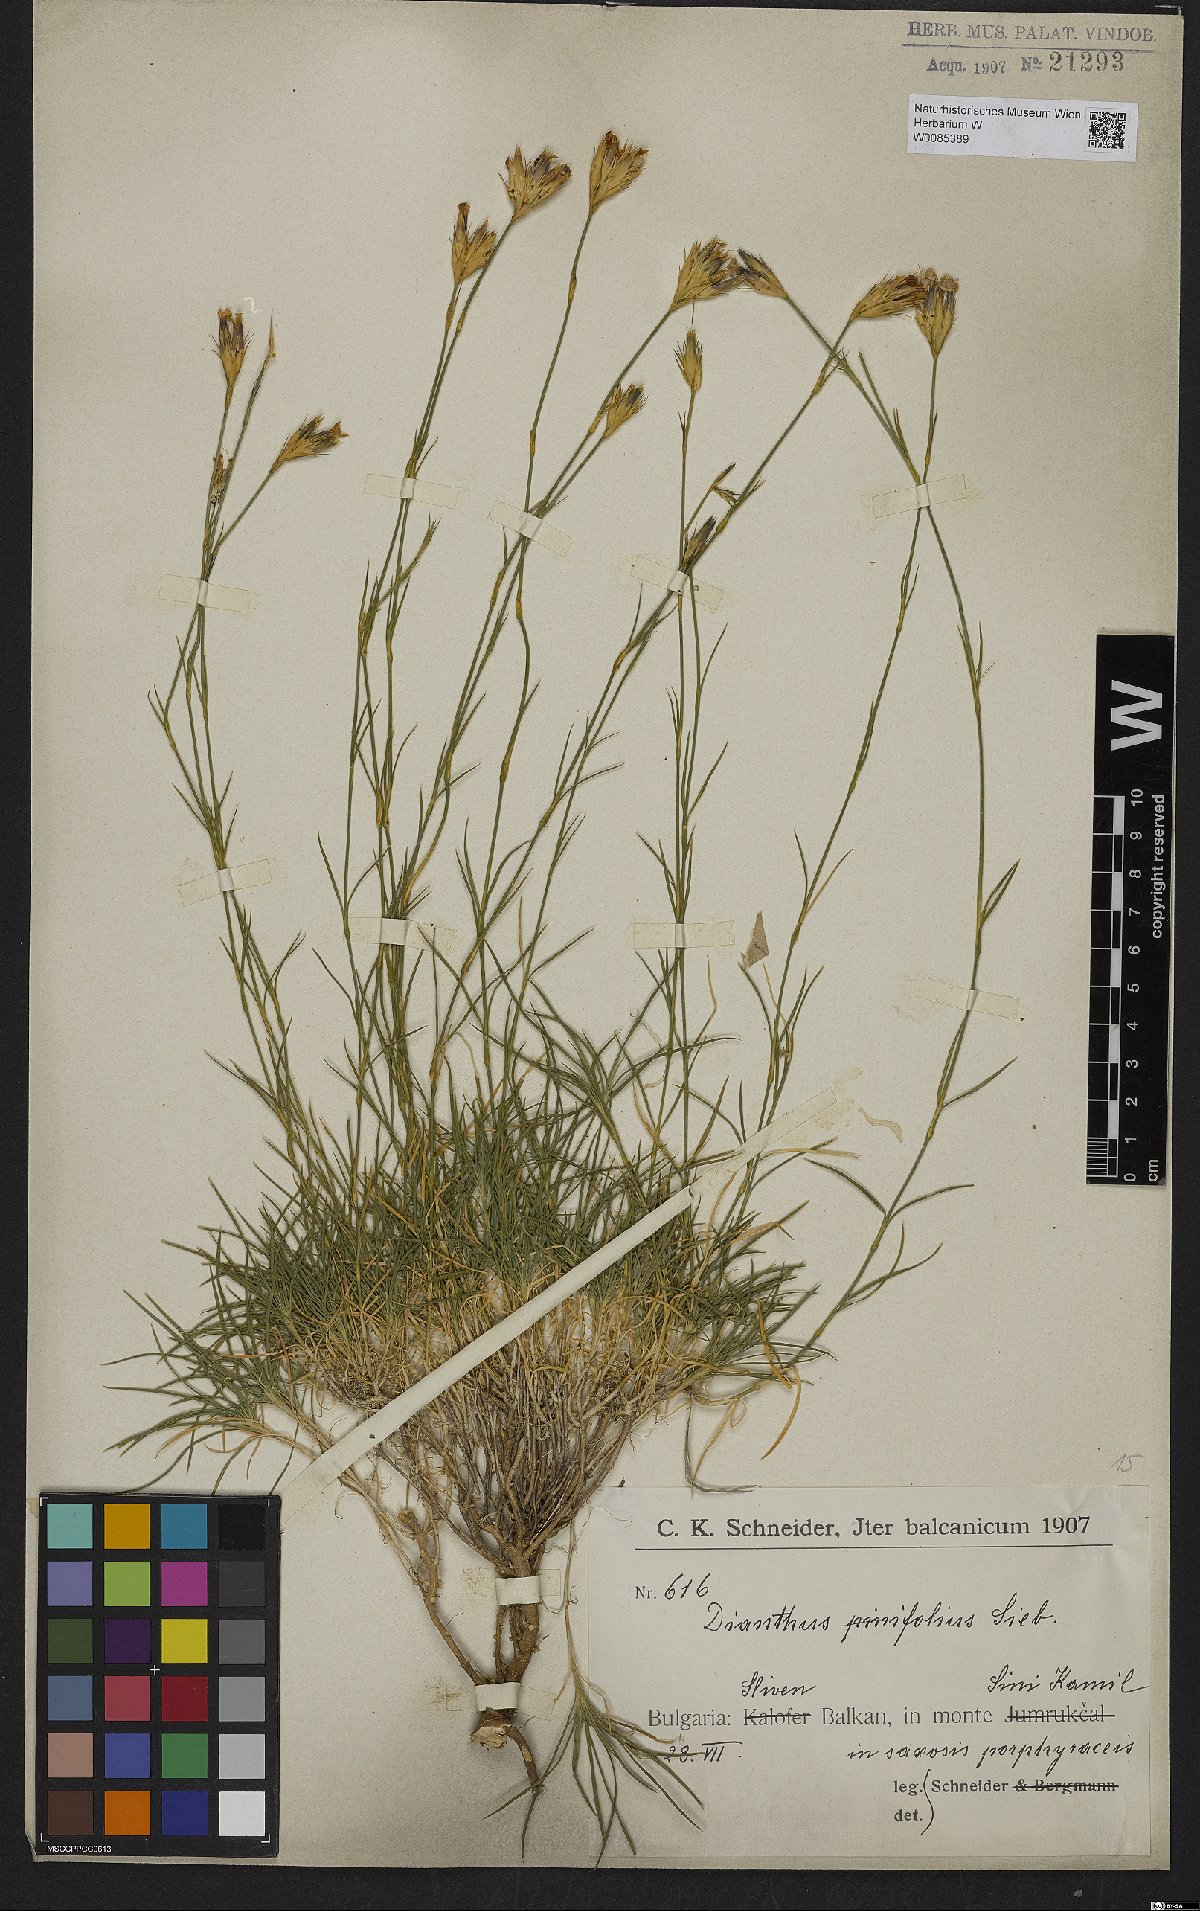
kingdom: Plantae
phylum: Tracheophyta
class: Magnoliopsida
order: Caryophyllales
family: Caryophyllaceae
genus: Dianthus
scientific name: Dianthus pinifolius
